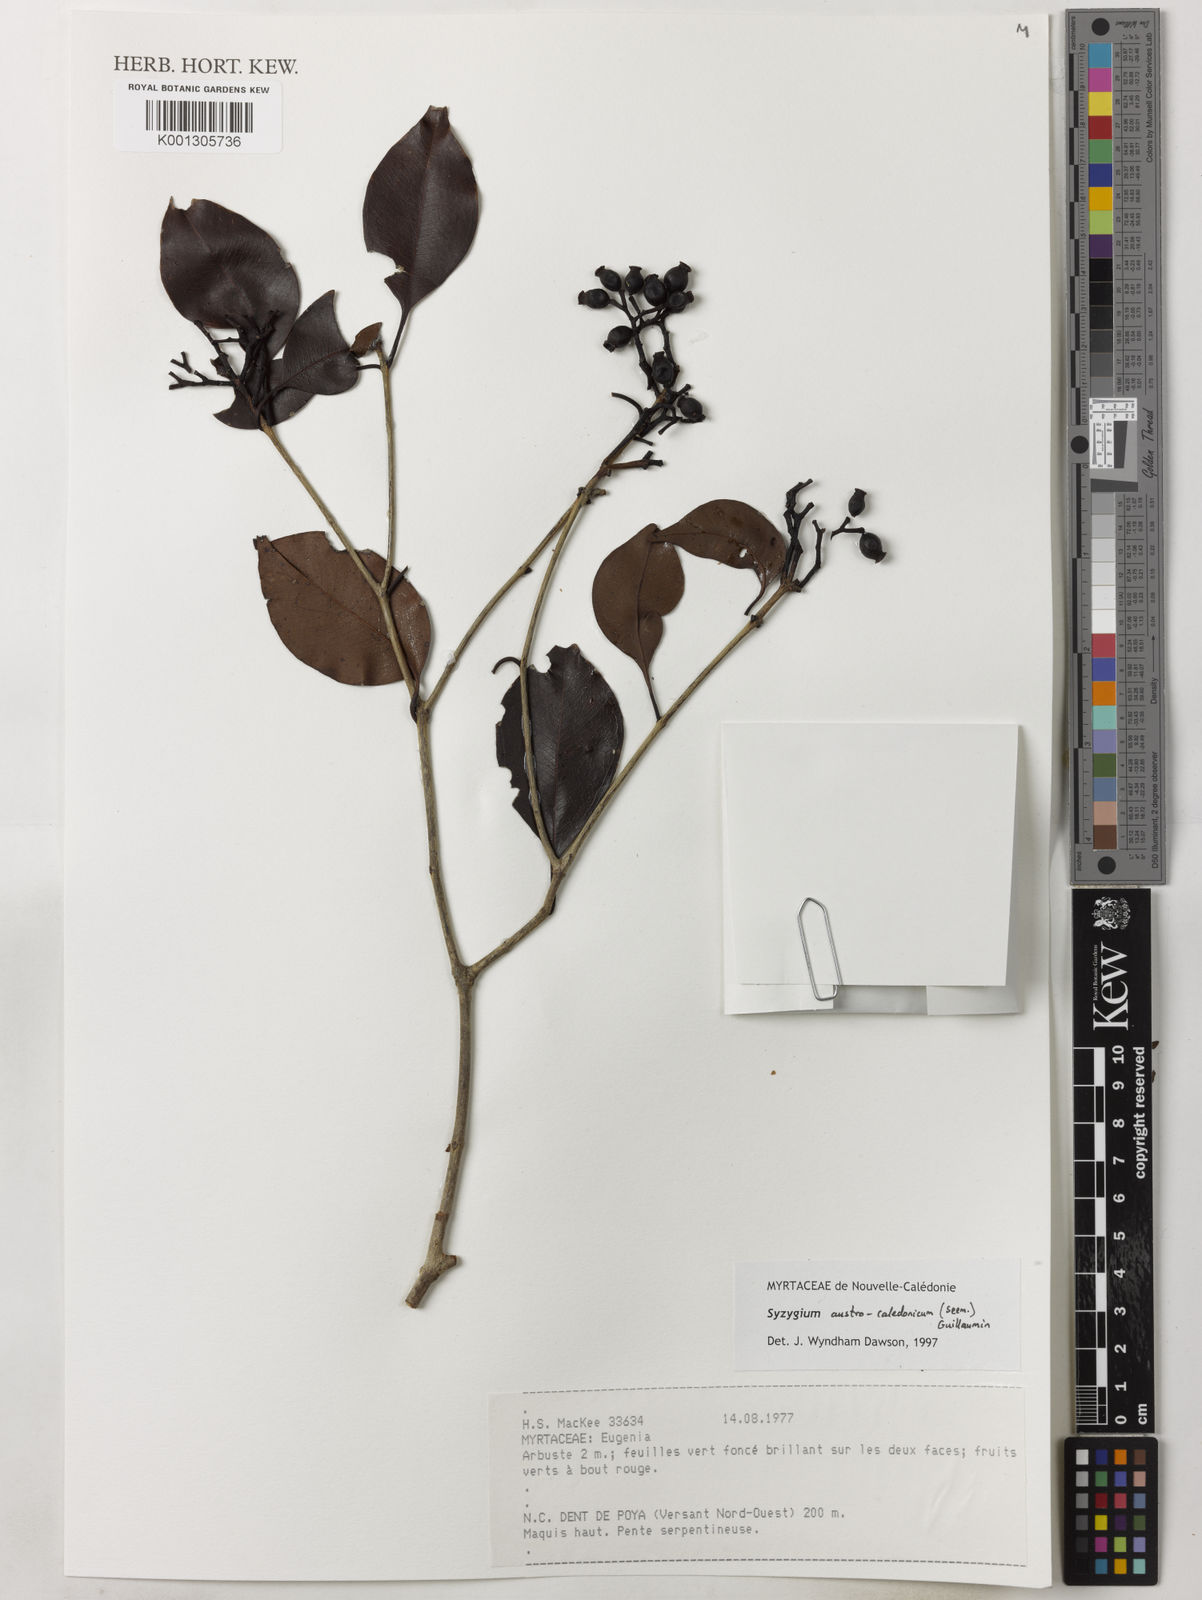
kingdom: Plantae
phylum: Tracheophyta
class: Magnoliopsida
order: Myrtales
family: Myrtaceae
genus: Syzygium
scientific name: Syzygium austrocaledonicum
